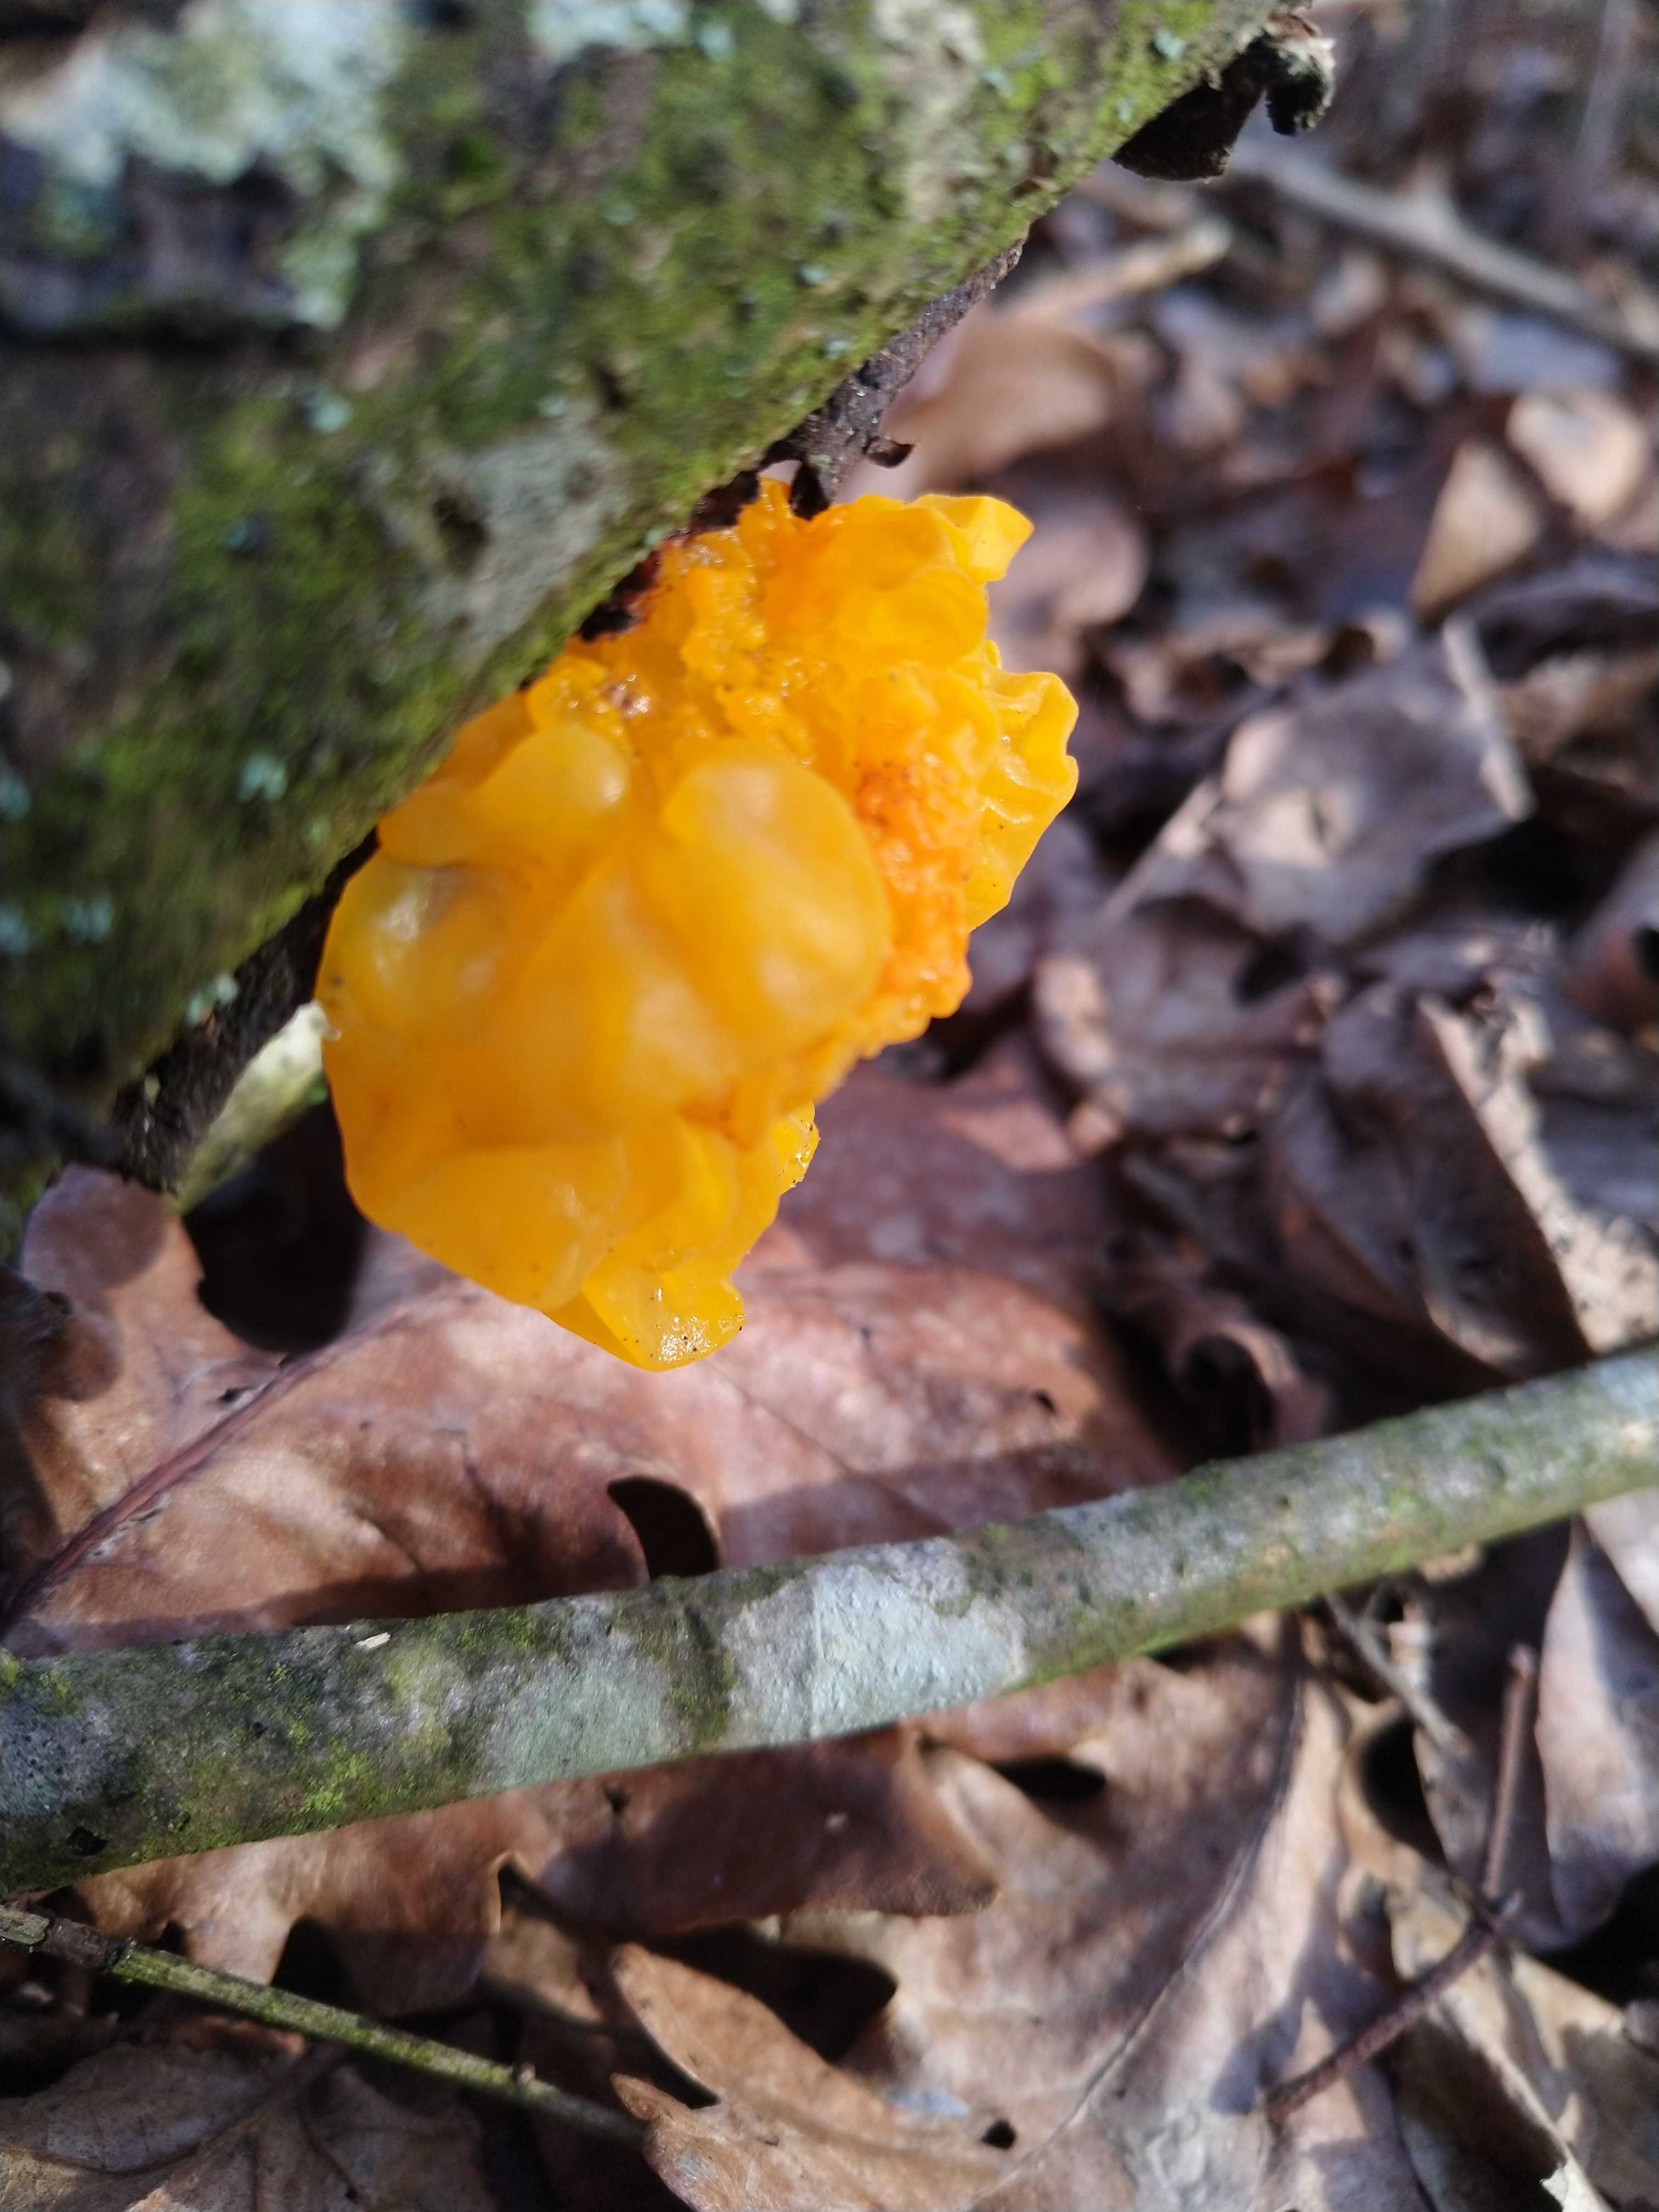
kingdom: Fungi
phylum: Basidiomycota
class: Tremellomycetes
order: Tremellales
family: Tremellaceae
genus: Tremella
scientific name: Tremella mesenterica
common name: gul bævresvamp
